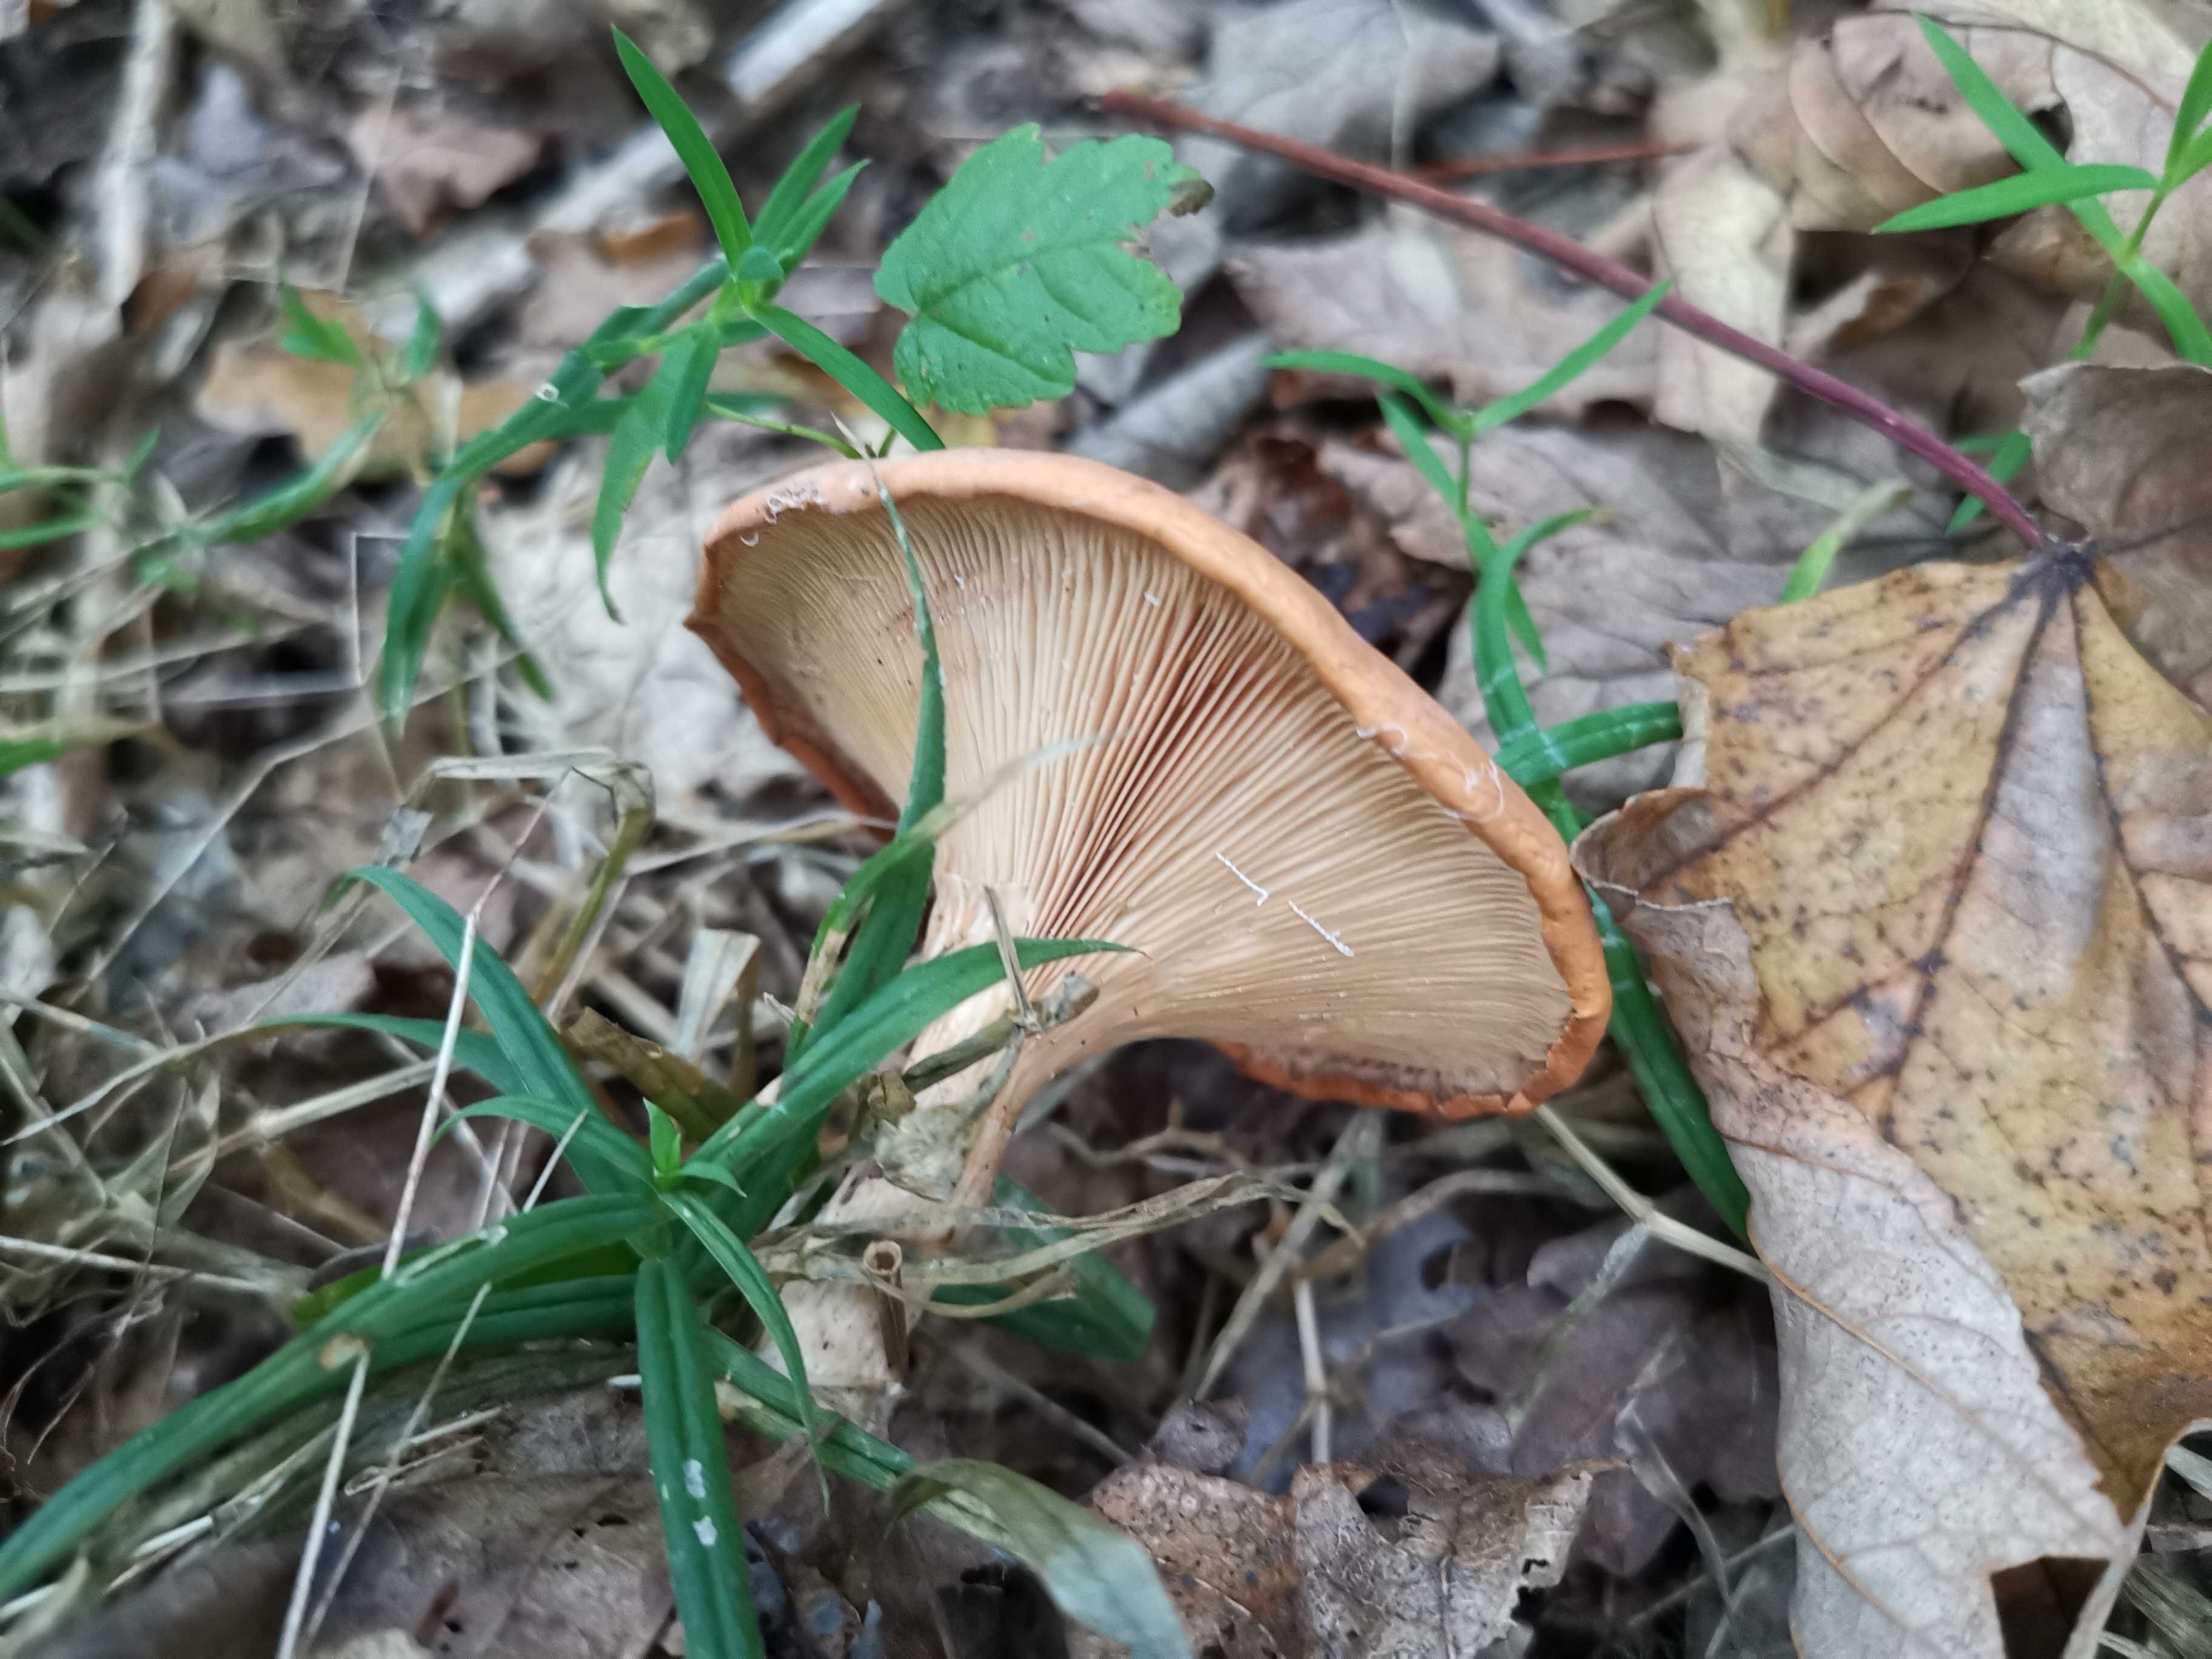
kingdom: Fungi
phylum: Basidiomycota
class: Agaricomycetes
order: Agaricales
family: Tricholomataceae
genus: Paralepista
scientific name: Paralepista flaccida
